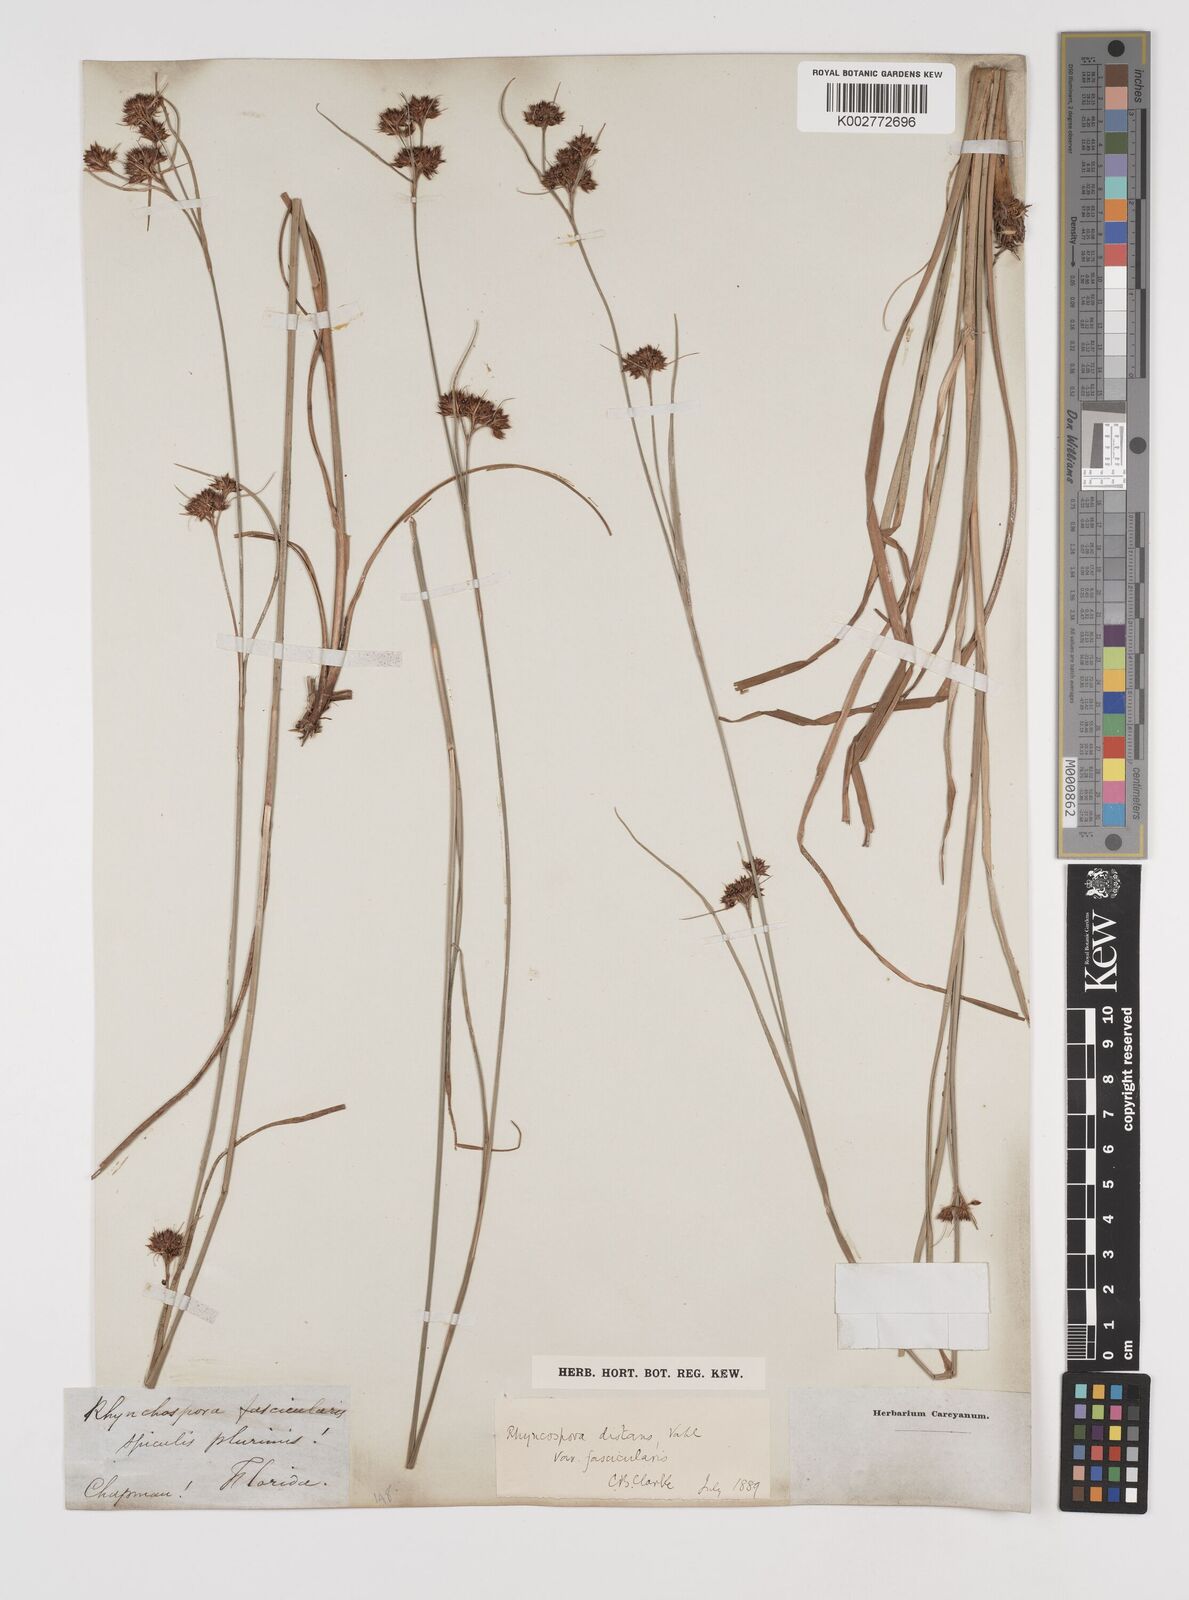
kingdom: Plantae
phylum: Tracheophyta
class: Liliopsida
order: Poales
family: Cyperaceae
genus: Rhynchospora
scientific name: Rhynchospora fascicularis
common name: Fascicled beak sedge
